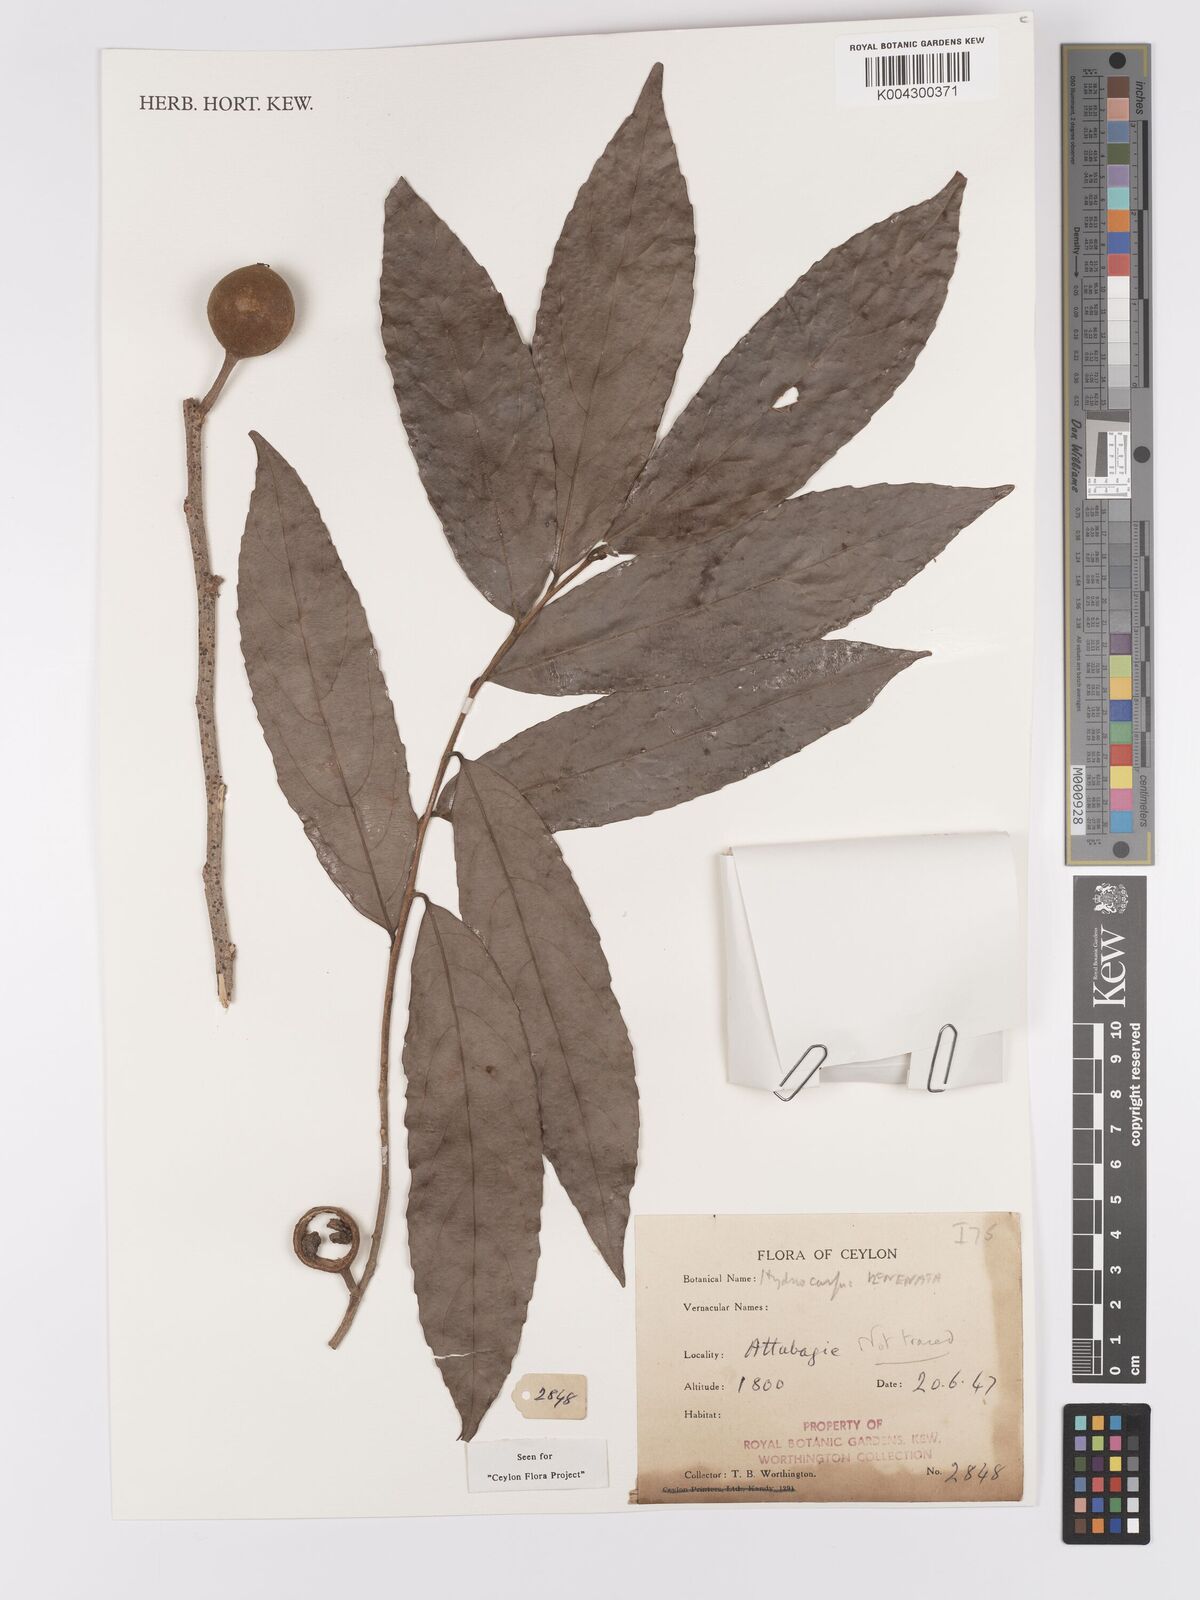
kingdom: Plantae
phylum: Tracheophyta
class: Magnoliopsida
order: Malpighiales
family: Achariaceae
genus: Hydnocarpus
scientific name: Hydnocarpus venenatus
